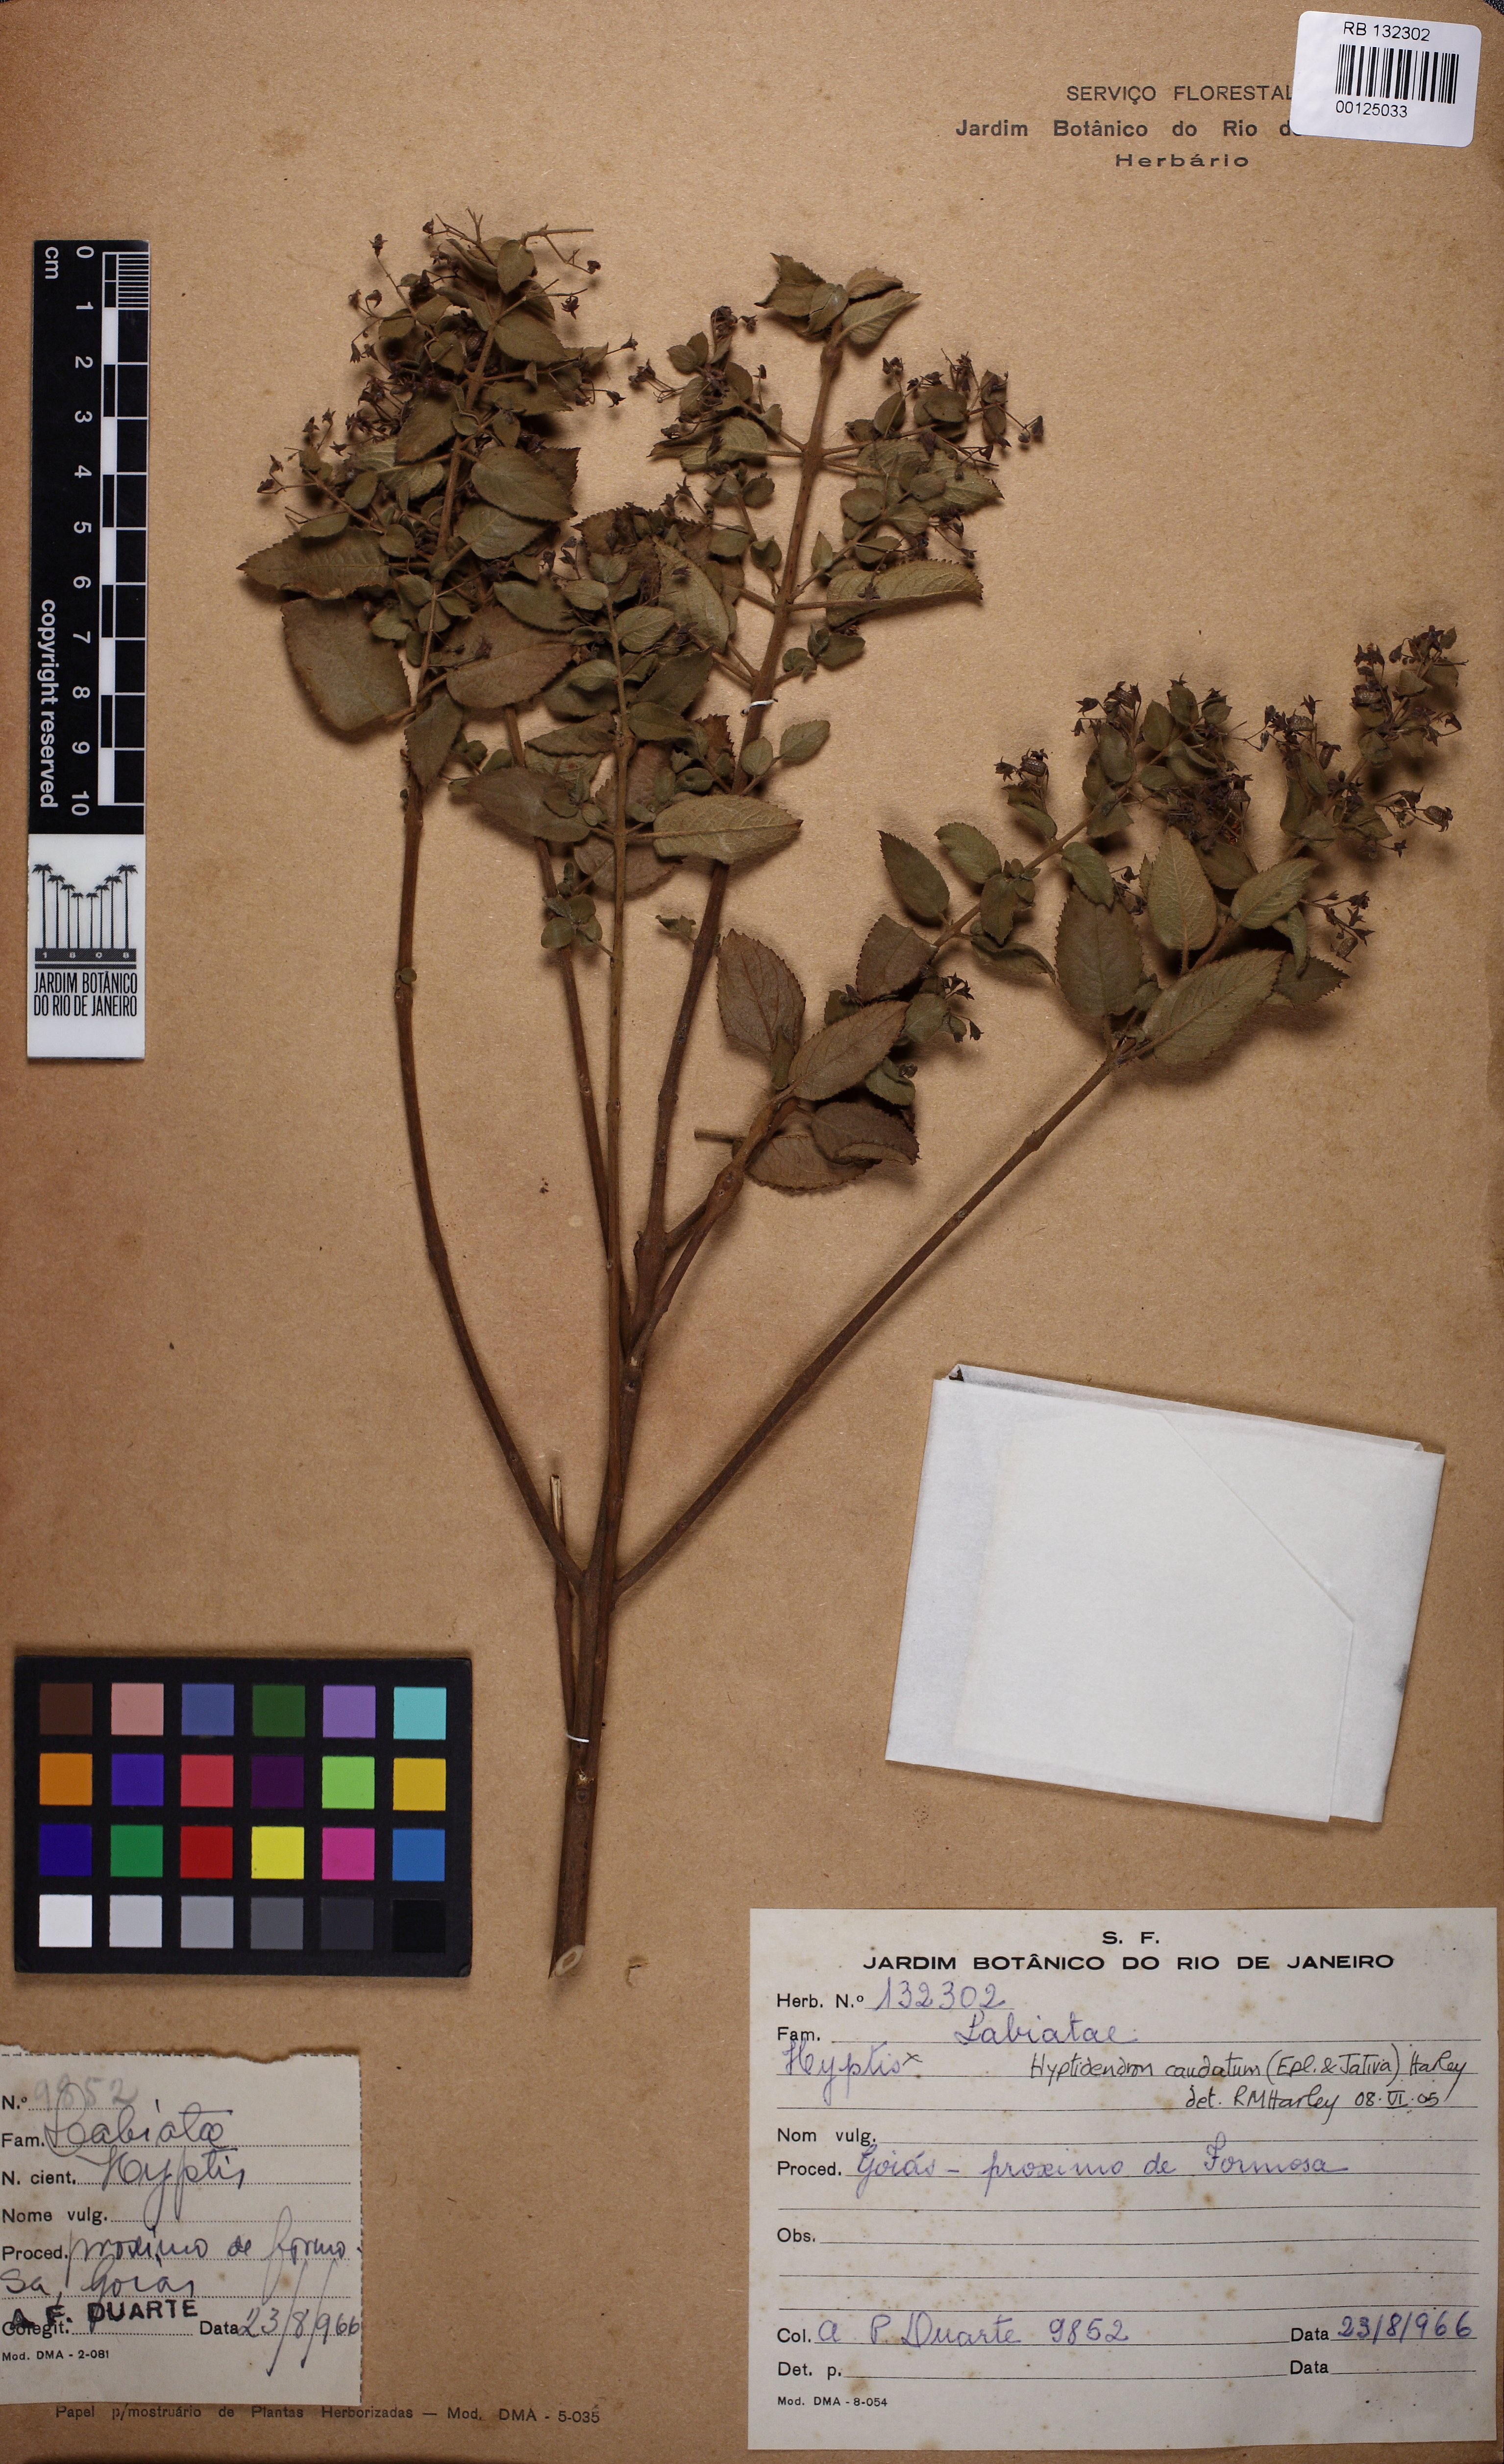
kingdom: Plantae
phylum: Tracheophyta
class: Magnoliopsida
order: Lamiales
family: Lamiaceae
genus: Hyptidendron
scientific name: Hyptidendron caudatum
